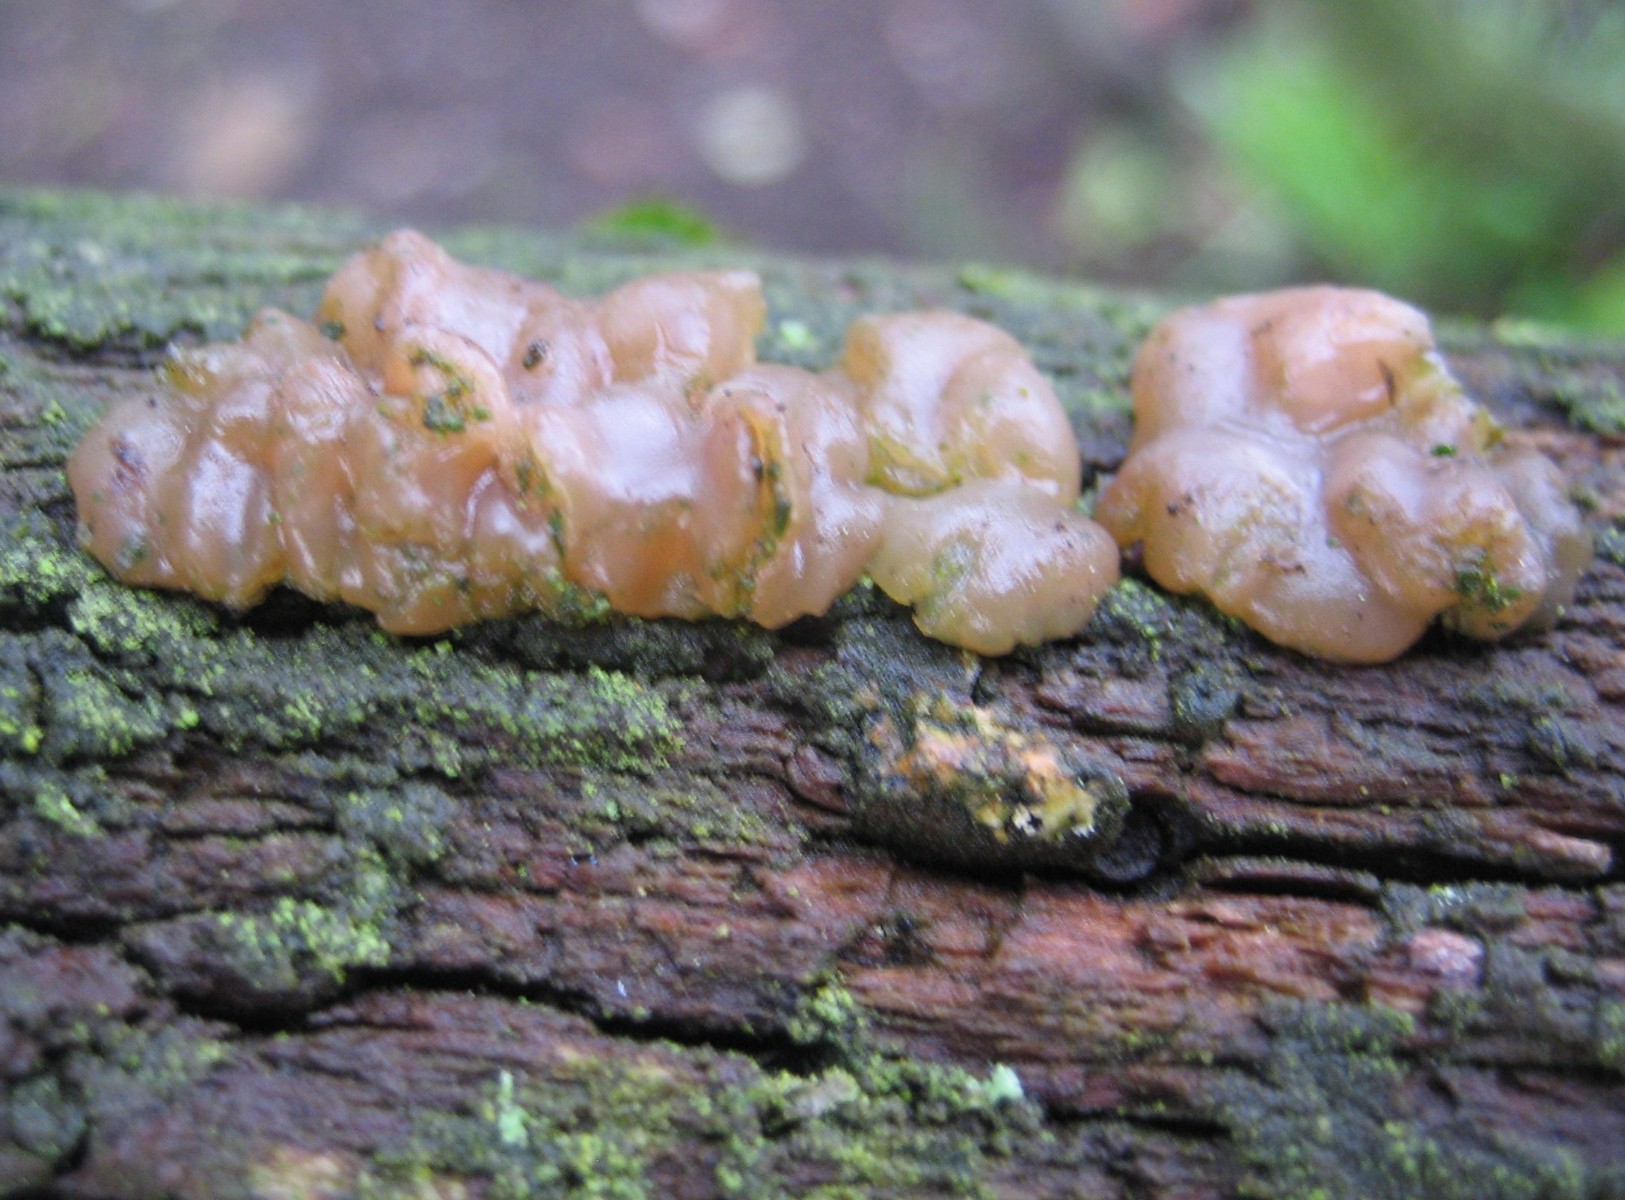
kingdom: Fungi
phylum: Basidiomycota
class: Agaricomycetes
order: Auriculariales
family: Hyaloriaceae
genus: Myxarium
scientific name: Myxarium
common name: bævretop
